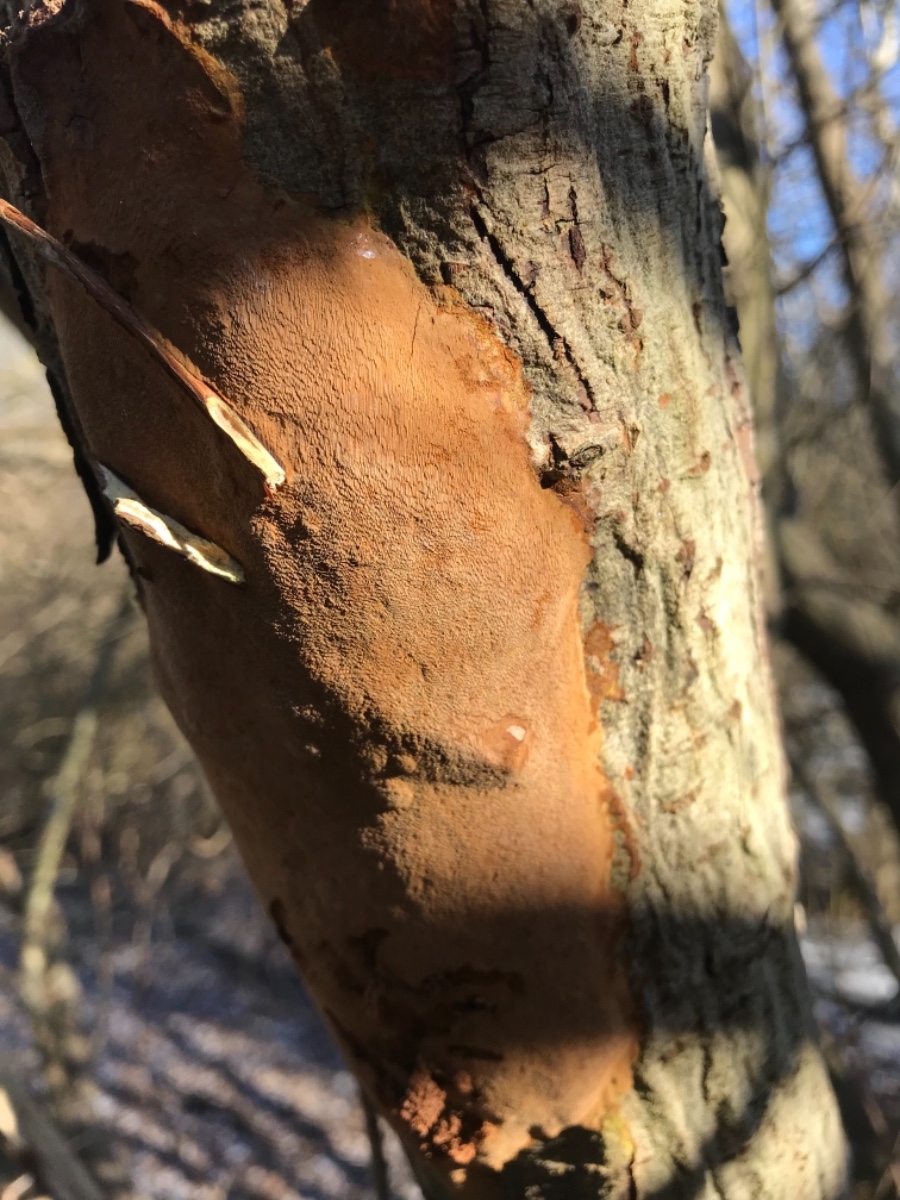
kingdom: Fungi
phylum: Basidiomycota
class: Agaricomycetes
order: Hymenochaetales
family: Hymenochaetaceae
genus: Fomitiporia
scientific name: Fomitiporia punctata
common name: pude-ildporesvamp
